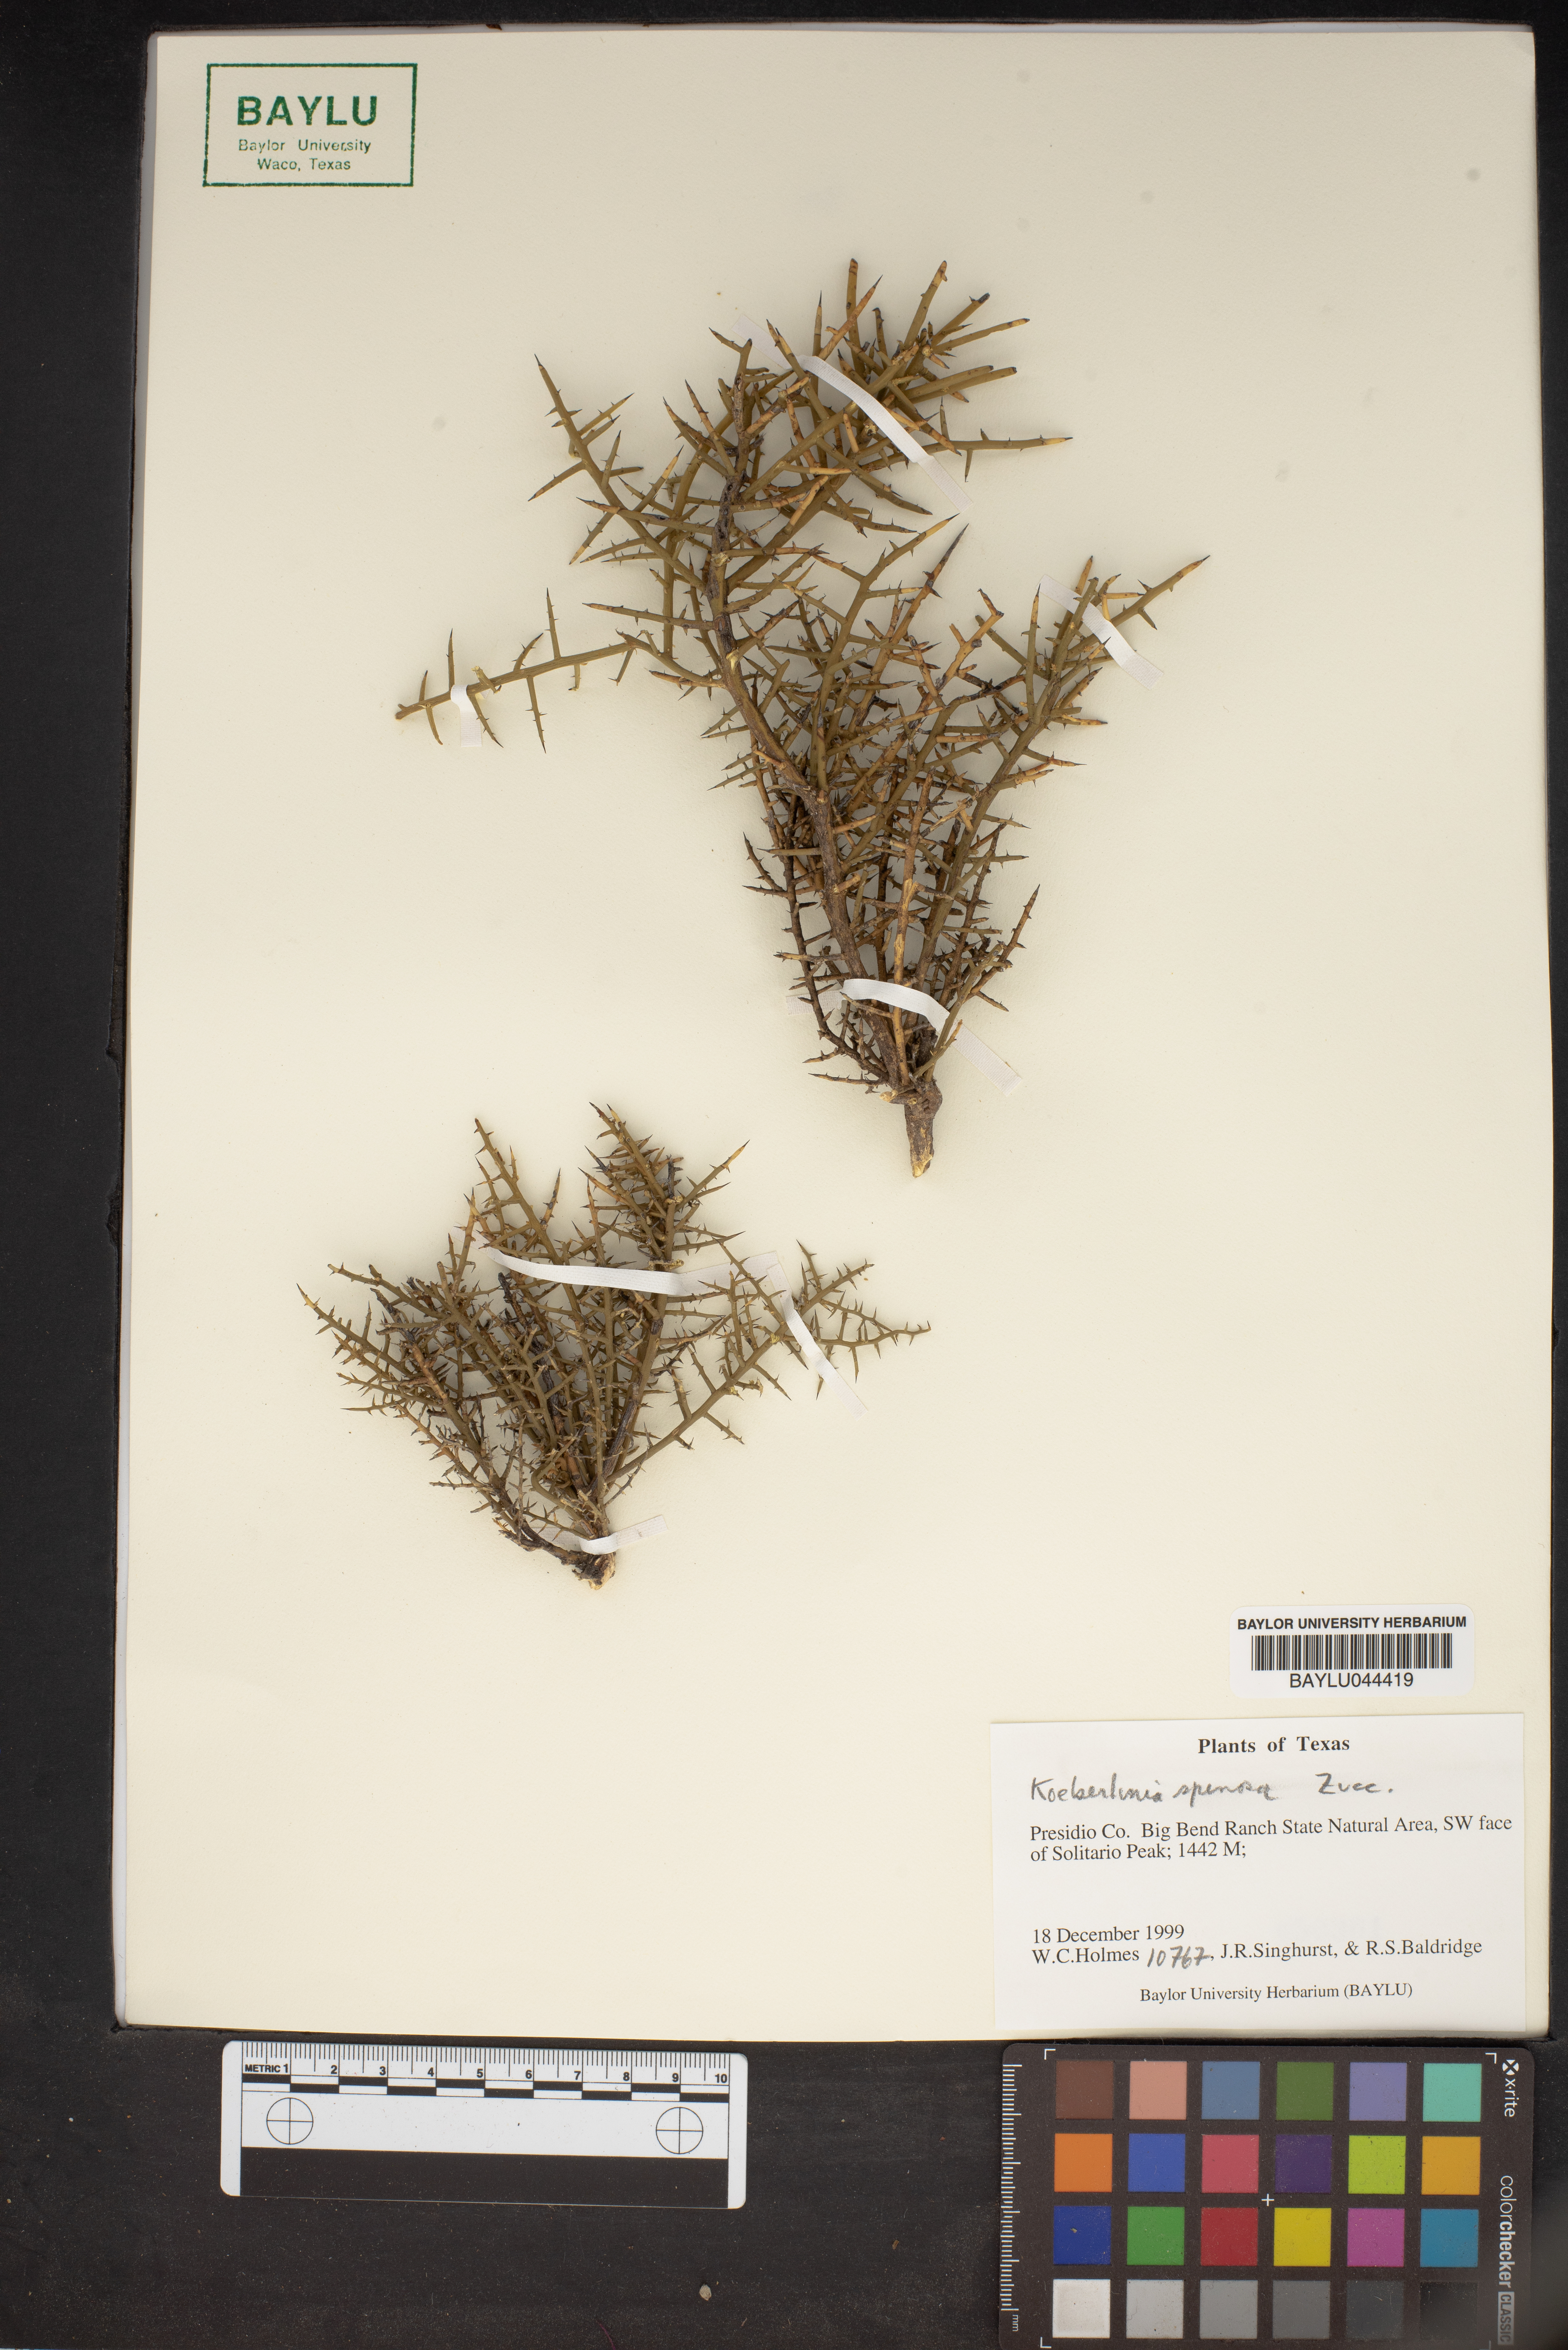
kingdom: Plantae
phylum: Tracheophyta
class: Magnoliopsida
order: Brassicales
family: Koeberliniaceae
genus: Koeberlinia
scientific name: Koeberlinia spinosa
